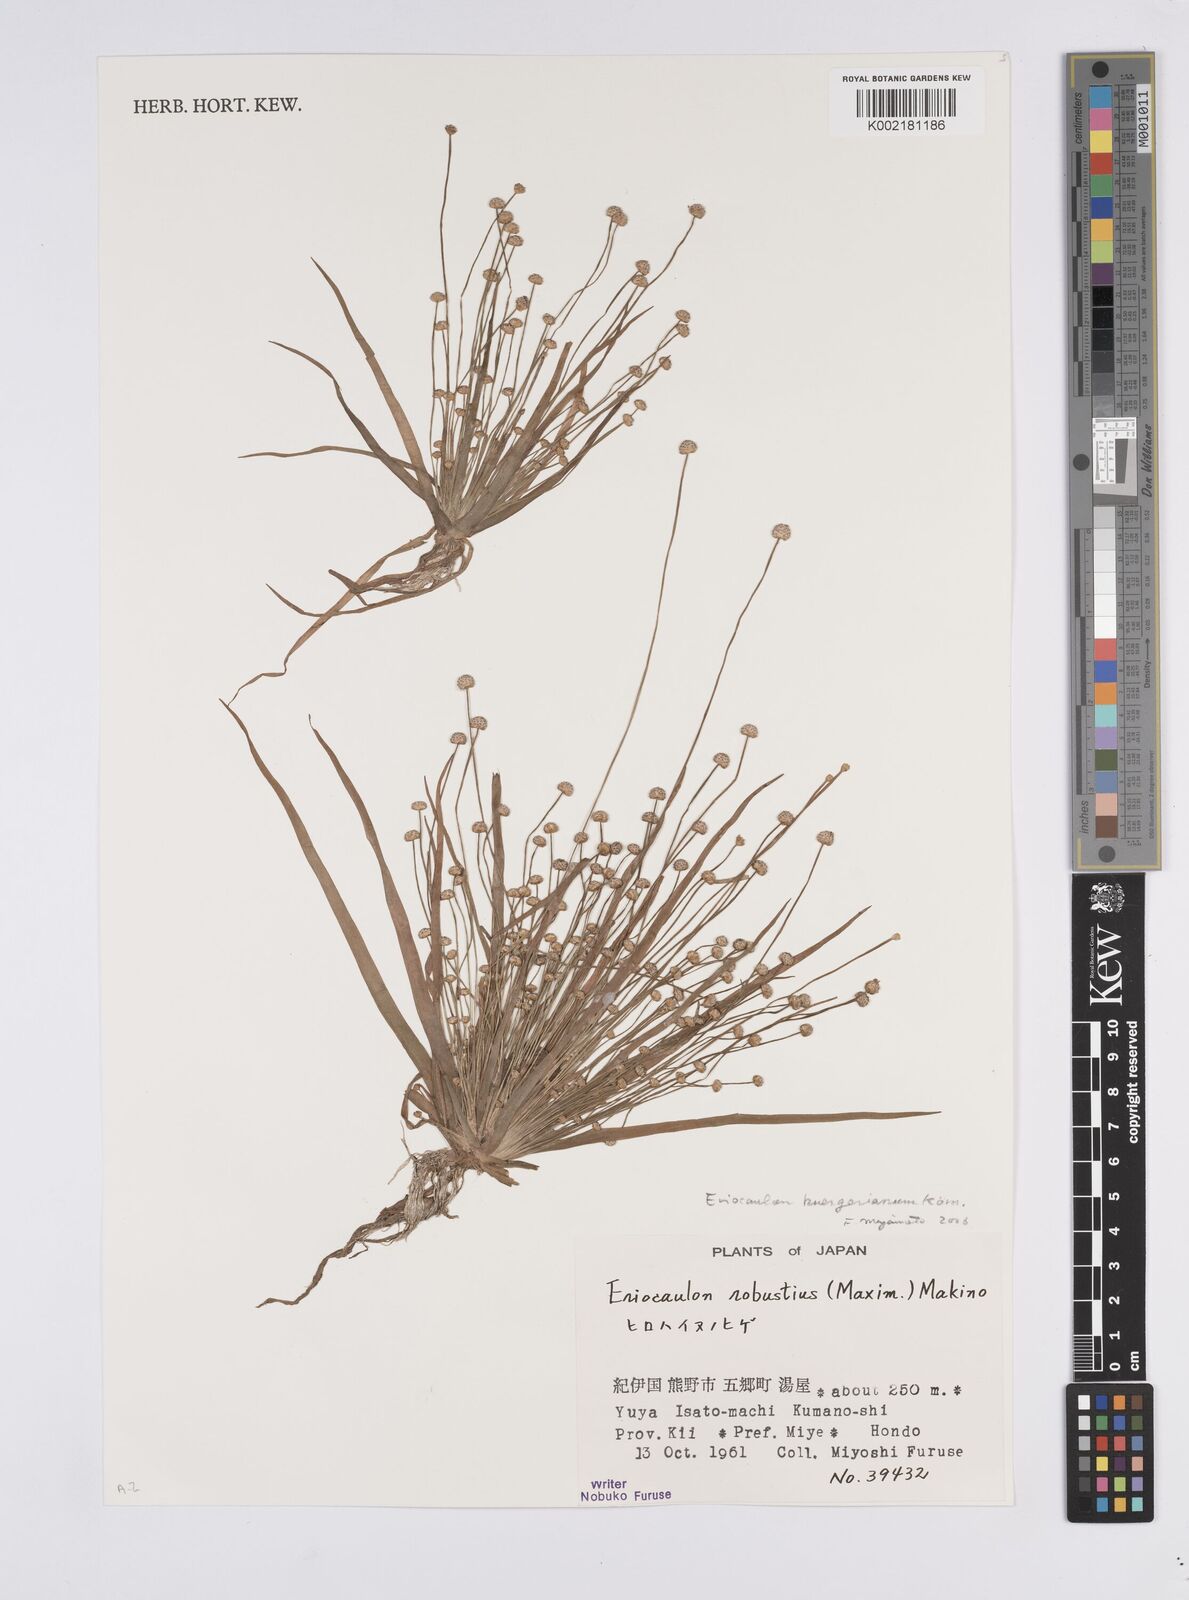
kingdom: Plantae
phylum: Tracheophyta
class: Liliopsida
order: Poales
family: Eriocaulaceae
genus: Eriocaulon
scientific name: Eriocaulon alpestre
